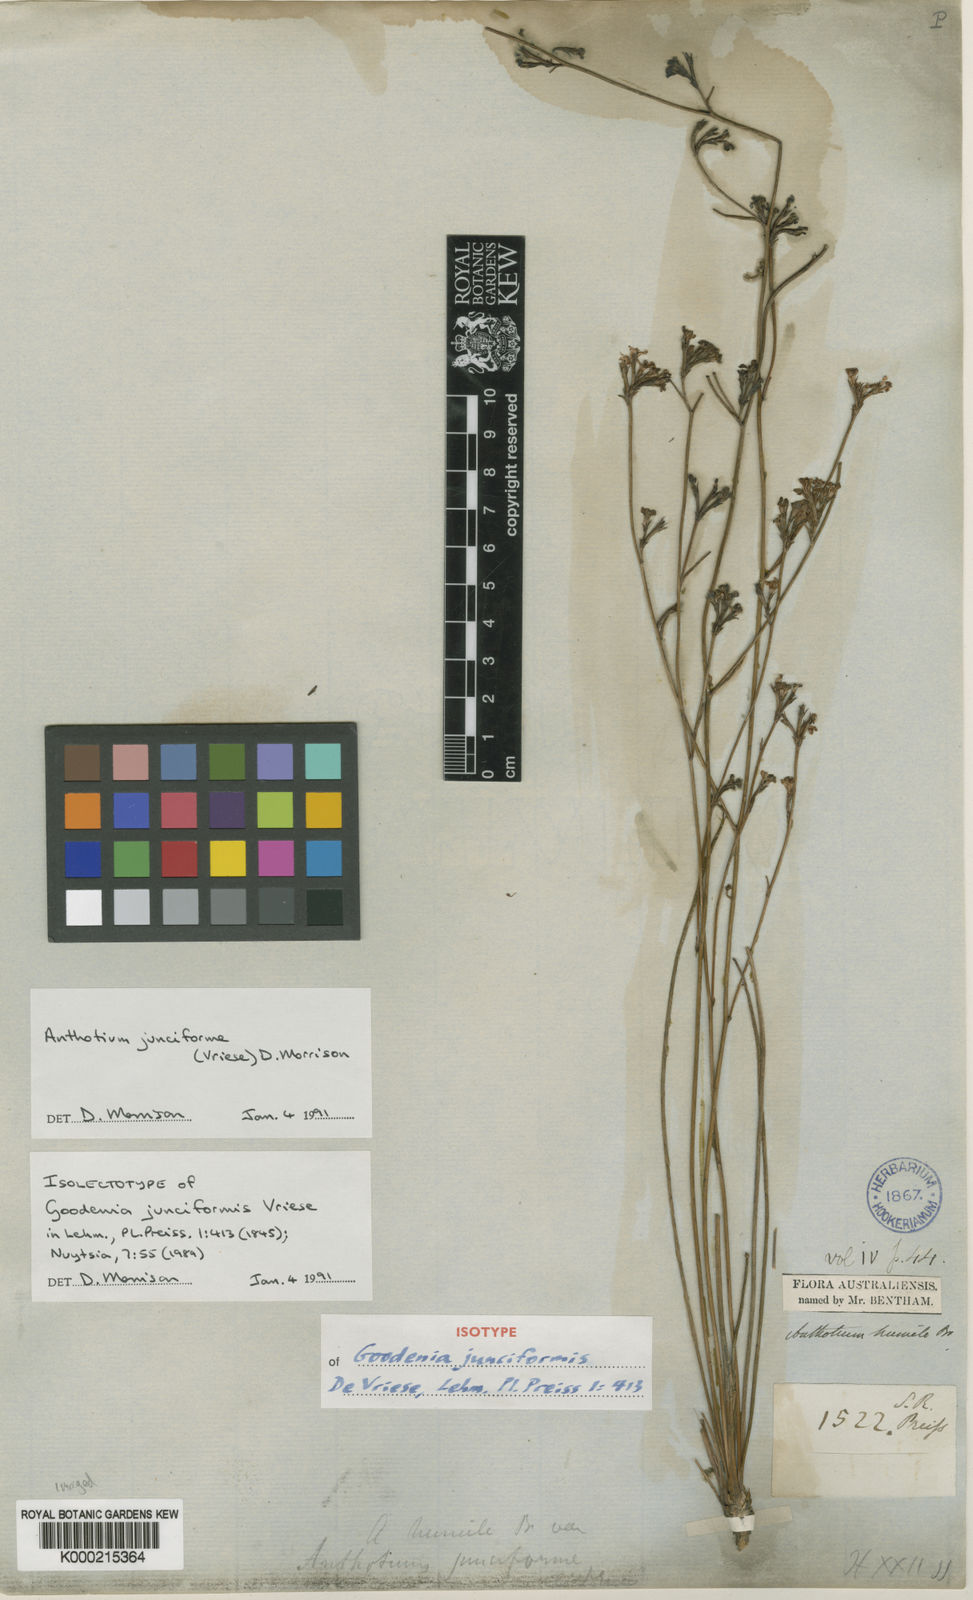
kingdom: Plantae
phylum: Tracheophyta
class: Magnoliopsida
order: Asterales
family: Goodeniaceae
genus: Anthotium
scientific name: Anthotium junciforme
